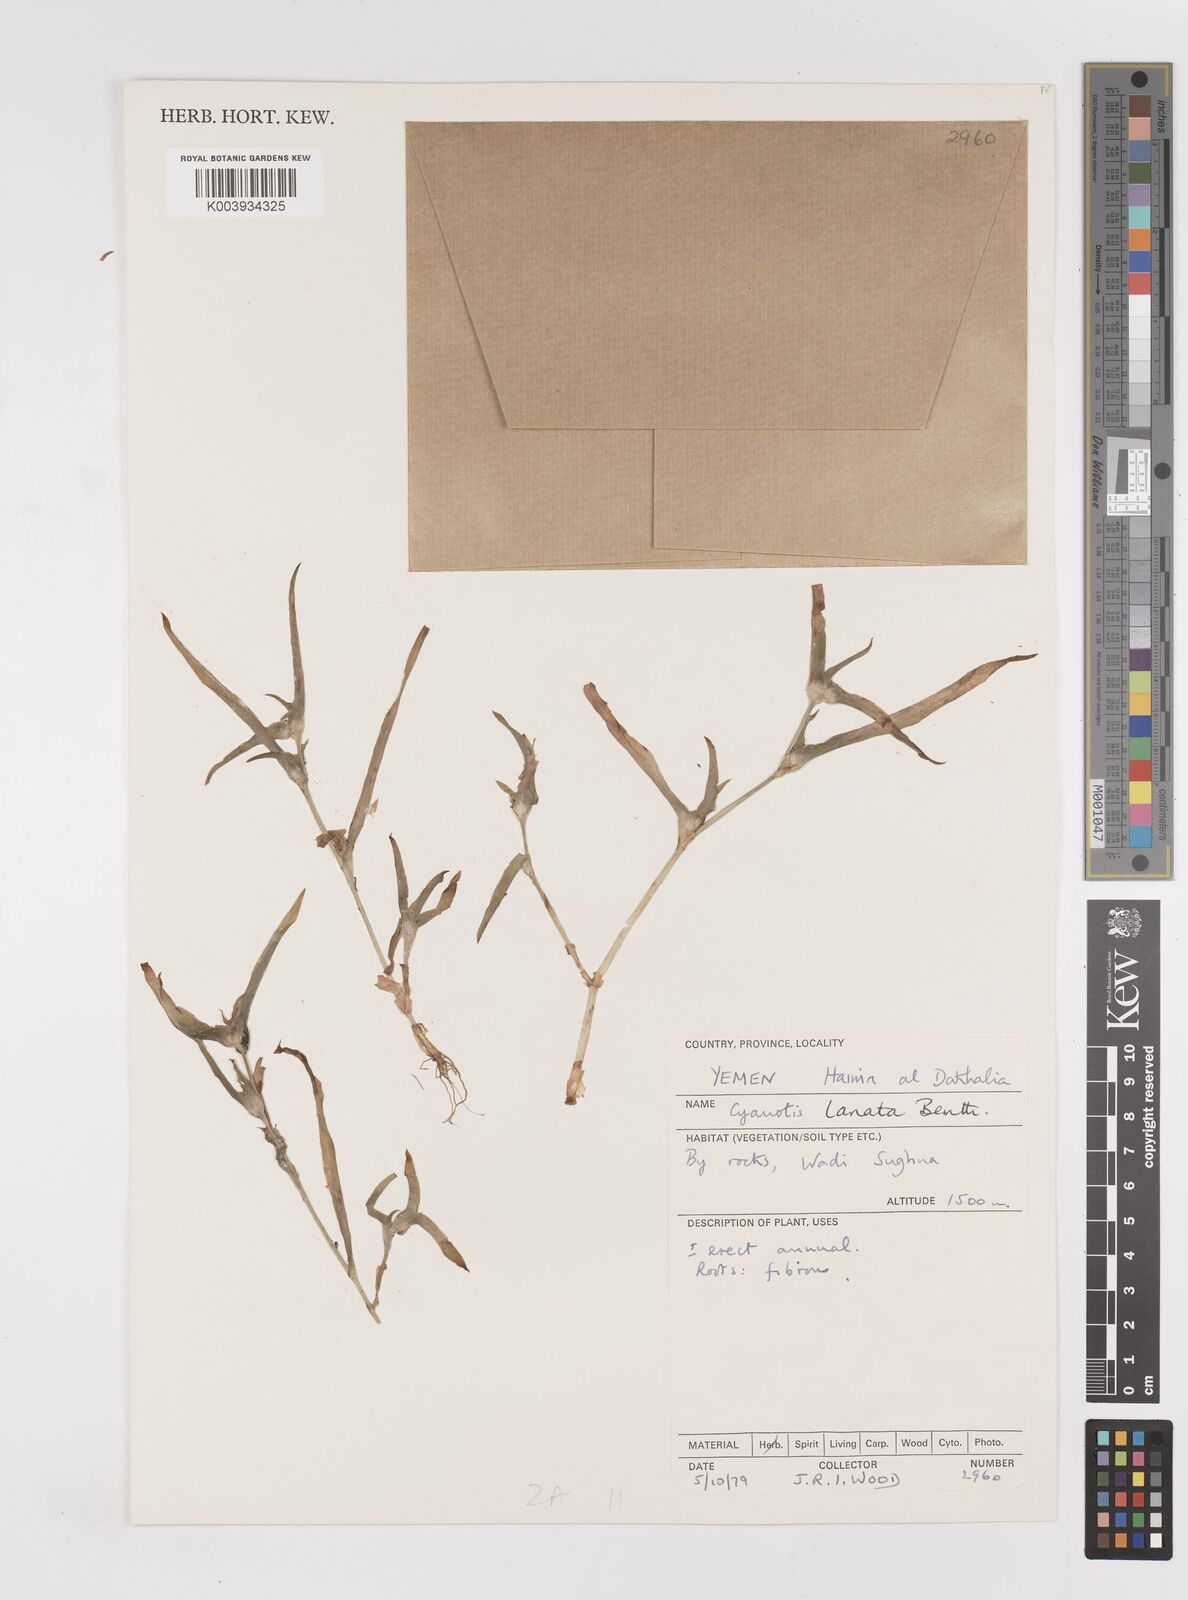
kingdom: Plantae
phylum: Tracheophyta
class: Liliopsida
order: Commelinales
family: Commelinaceae
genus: Cyanotis
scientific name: Cyanotis lanata
